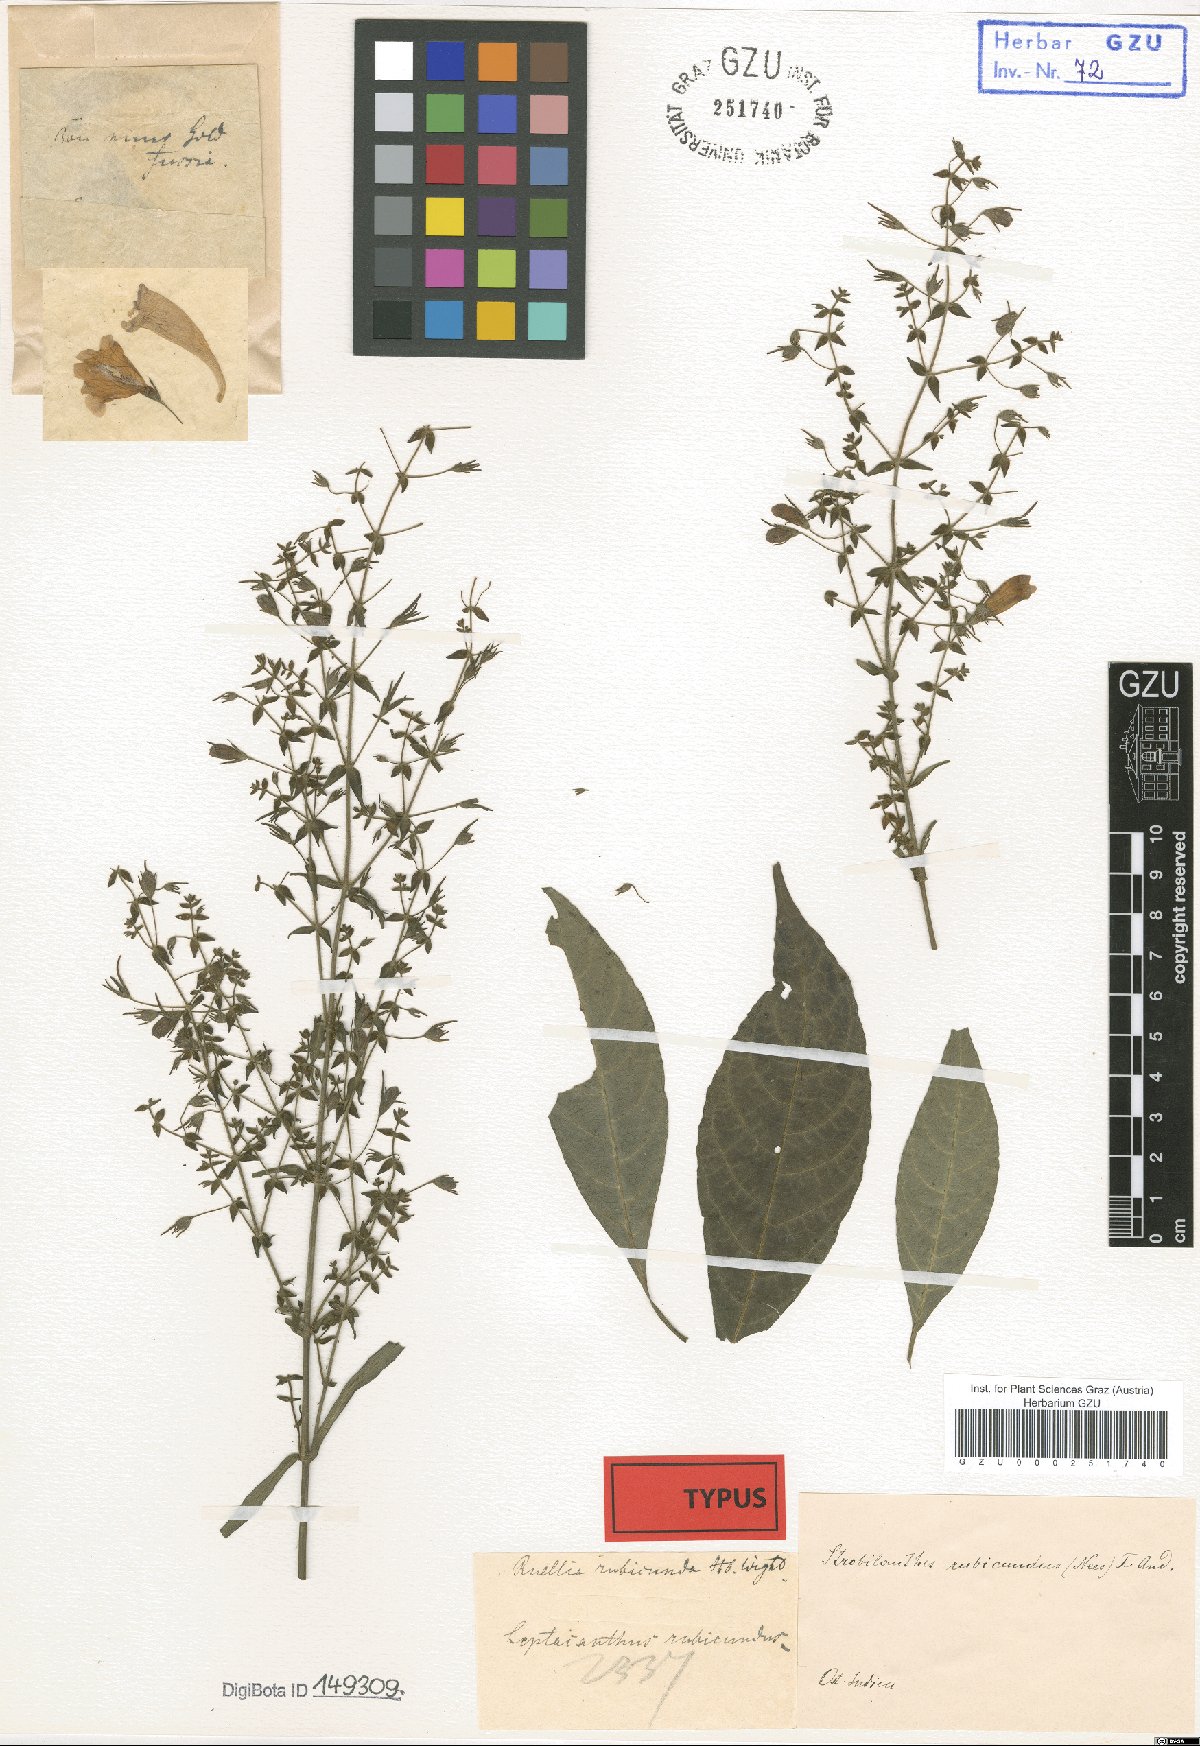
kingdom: Plantae
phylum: Tracheophyta
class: Magnoliopsida
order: Lamiales
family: Acanthaceae
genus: Strobilanthes
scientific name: Strobilanthes rubicunda
